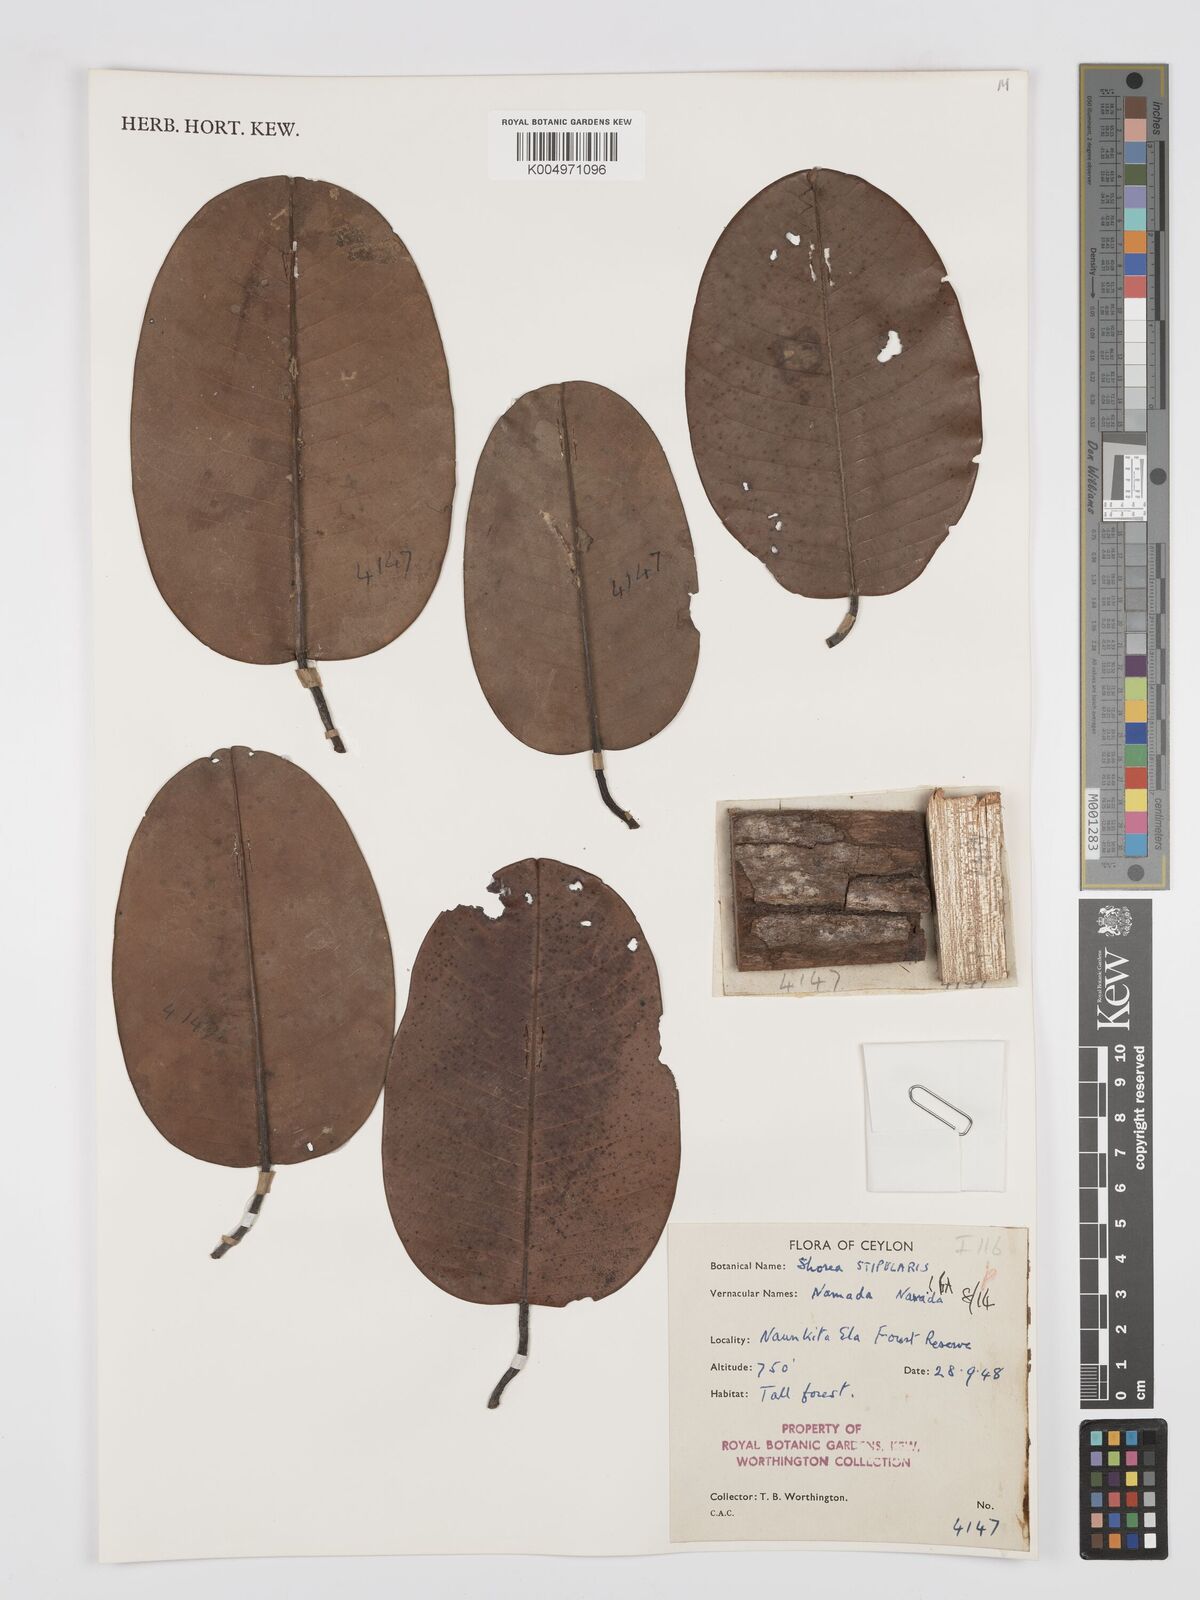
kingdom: Plantae
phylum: Tracheophyta
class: Magnoliopsida
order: Malvales
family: Dipterocarpaceae
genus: Anthoshorea
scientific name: Anthoshorea stipularis
